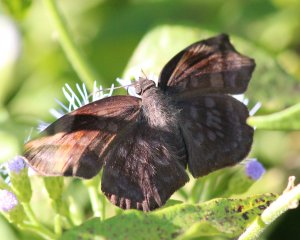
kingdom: Animalia
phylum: Arthropoda
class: Insecta
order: Lepidoptera
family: Hesperiidae
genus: Achlyodes
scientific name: Achlyodes thraso
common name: Sickle-winged Skipper
